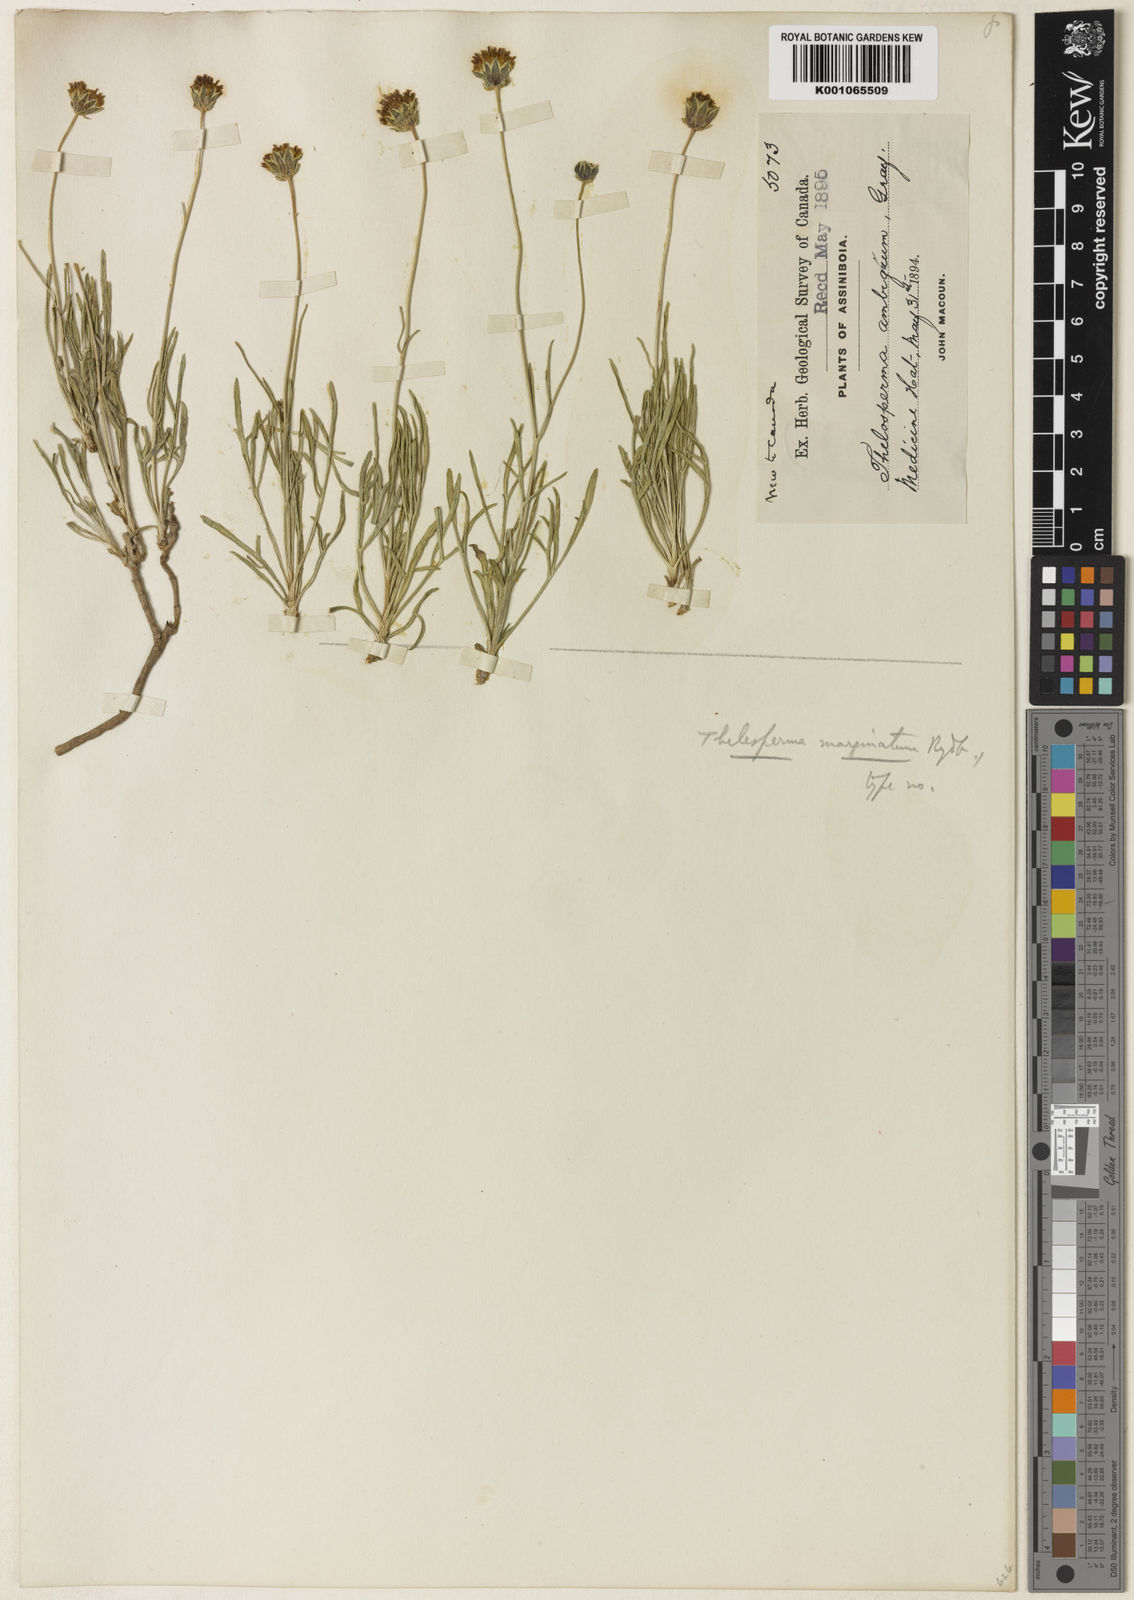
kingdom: Plantae
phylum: Tracheophyta
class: Magnoliopsida
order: Asterales
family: Asteraceae
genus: Thelesperma
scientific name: Thelesperma subnudum
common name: Navajo tea
